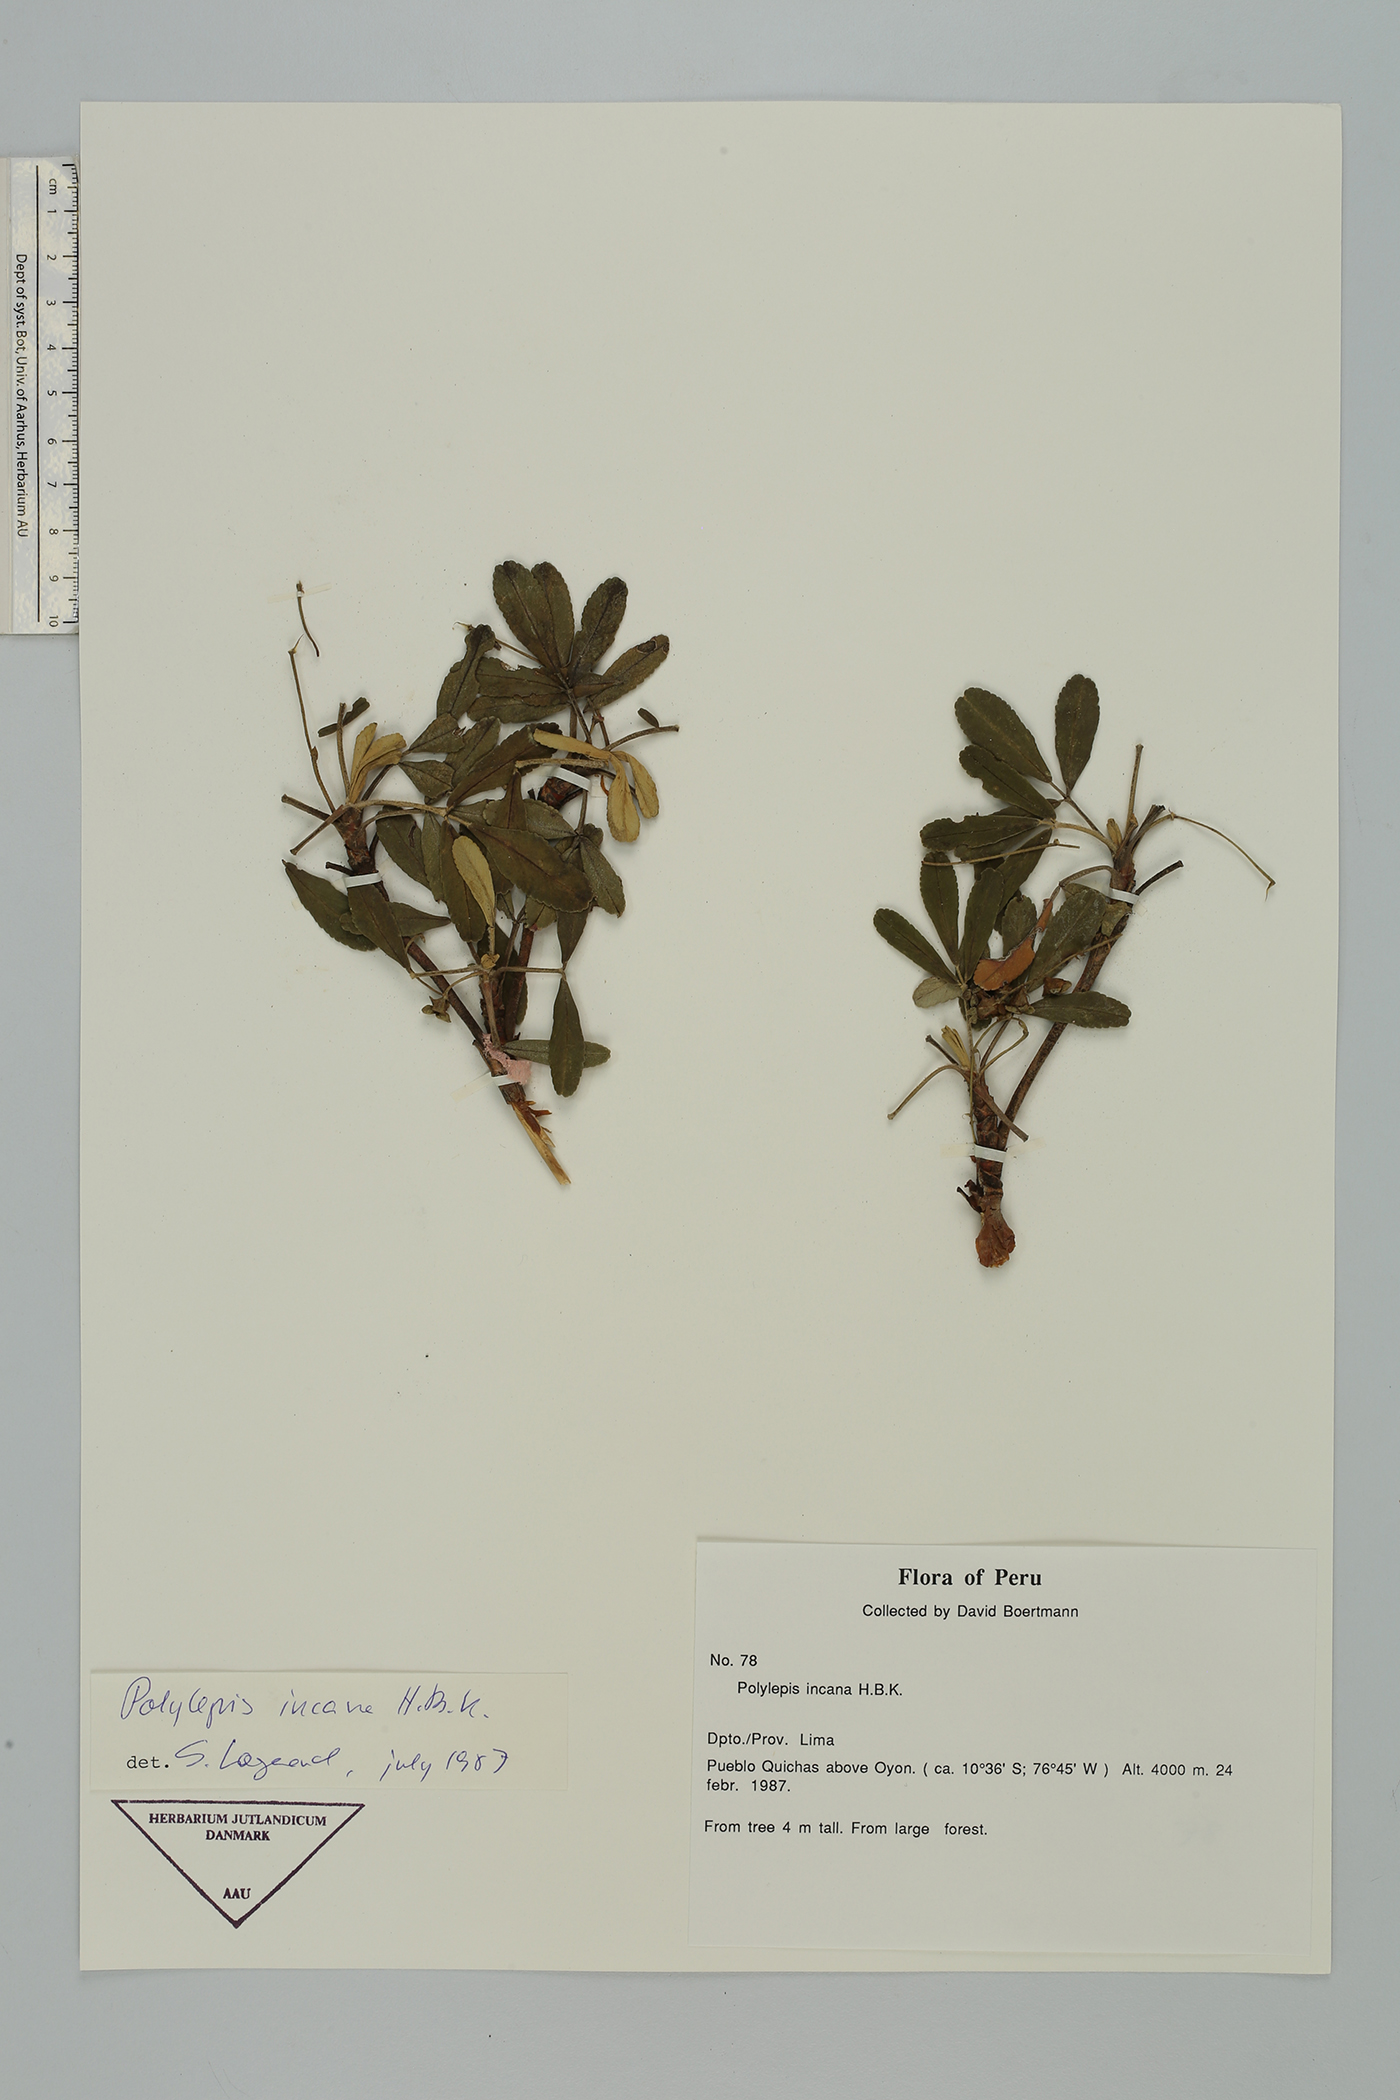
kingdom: Plantae
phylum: Tracheophyta
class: Magnoliopsida
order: Rosales
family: Rosaceae
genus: Polylepis
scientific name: Polylepis incana
